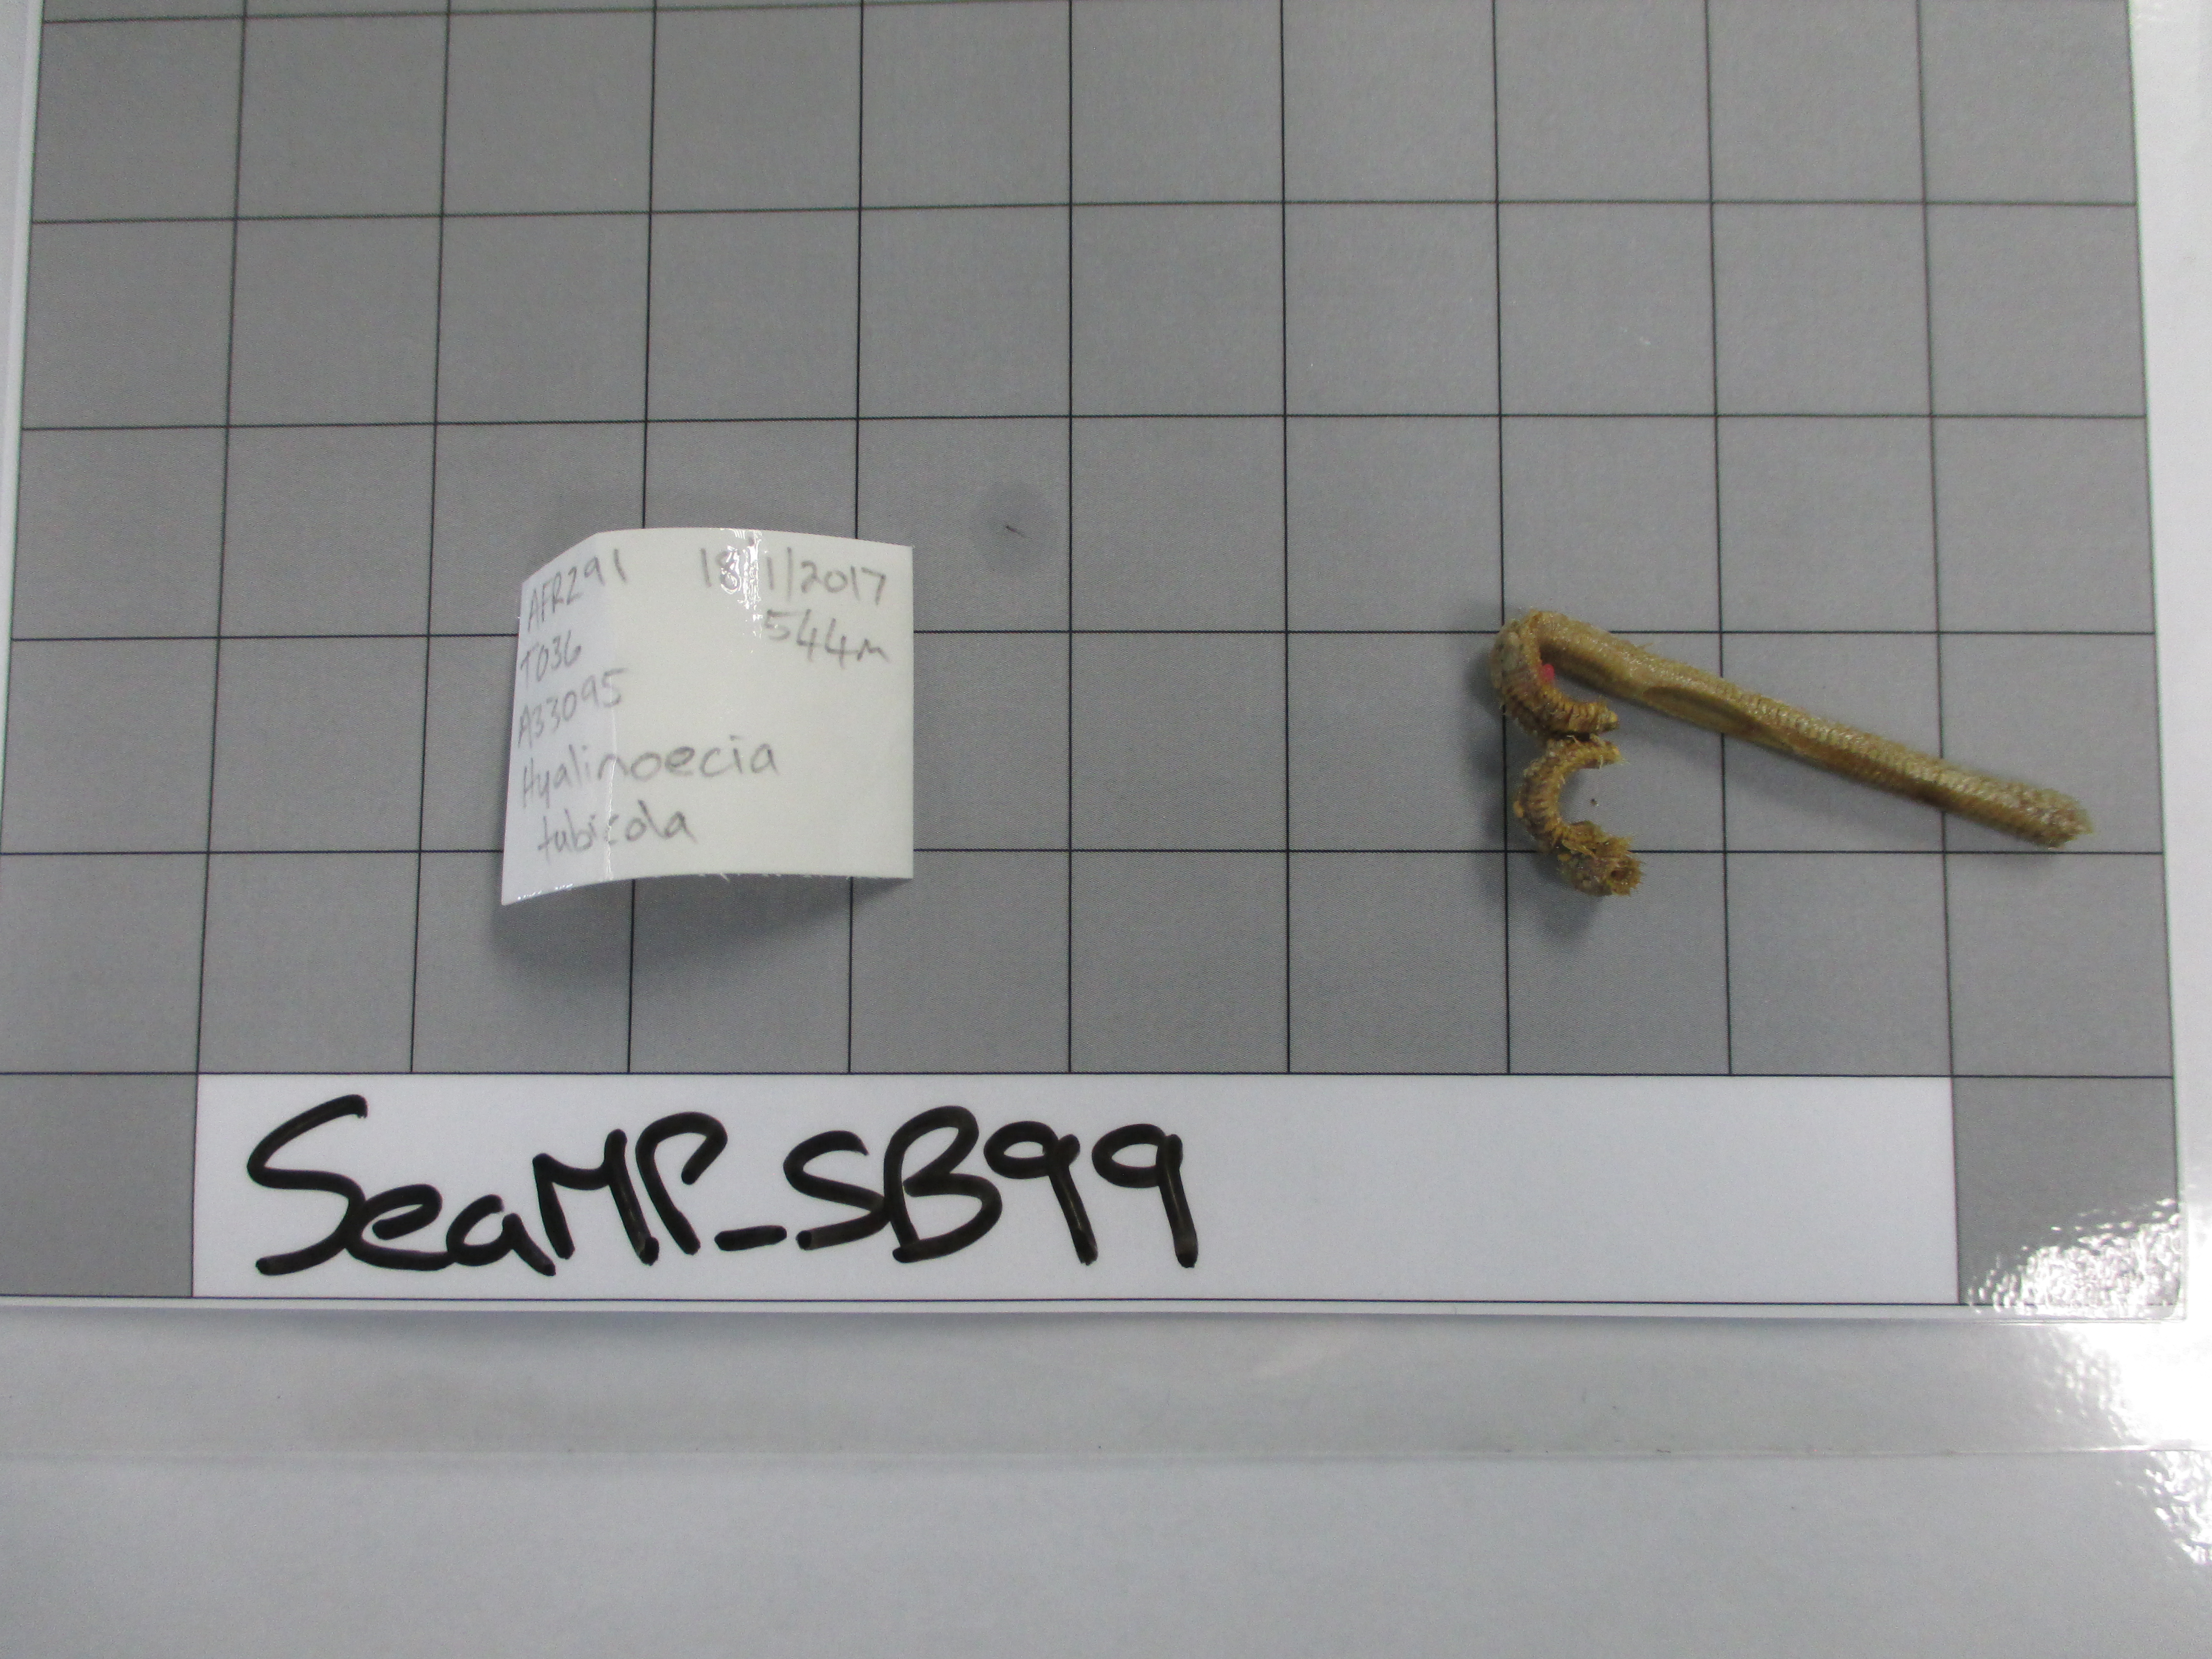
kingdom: Animalia
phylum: Annelida
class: Polychaeta
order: Eunicida
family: Onuphidae
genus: Hyalinoecia
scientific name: Hyalinoecia tubicola
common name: Bristleworm
